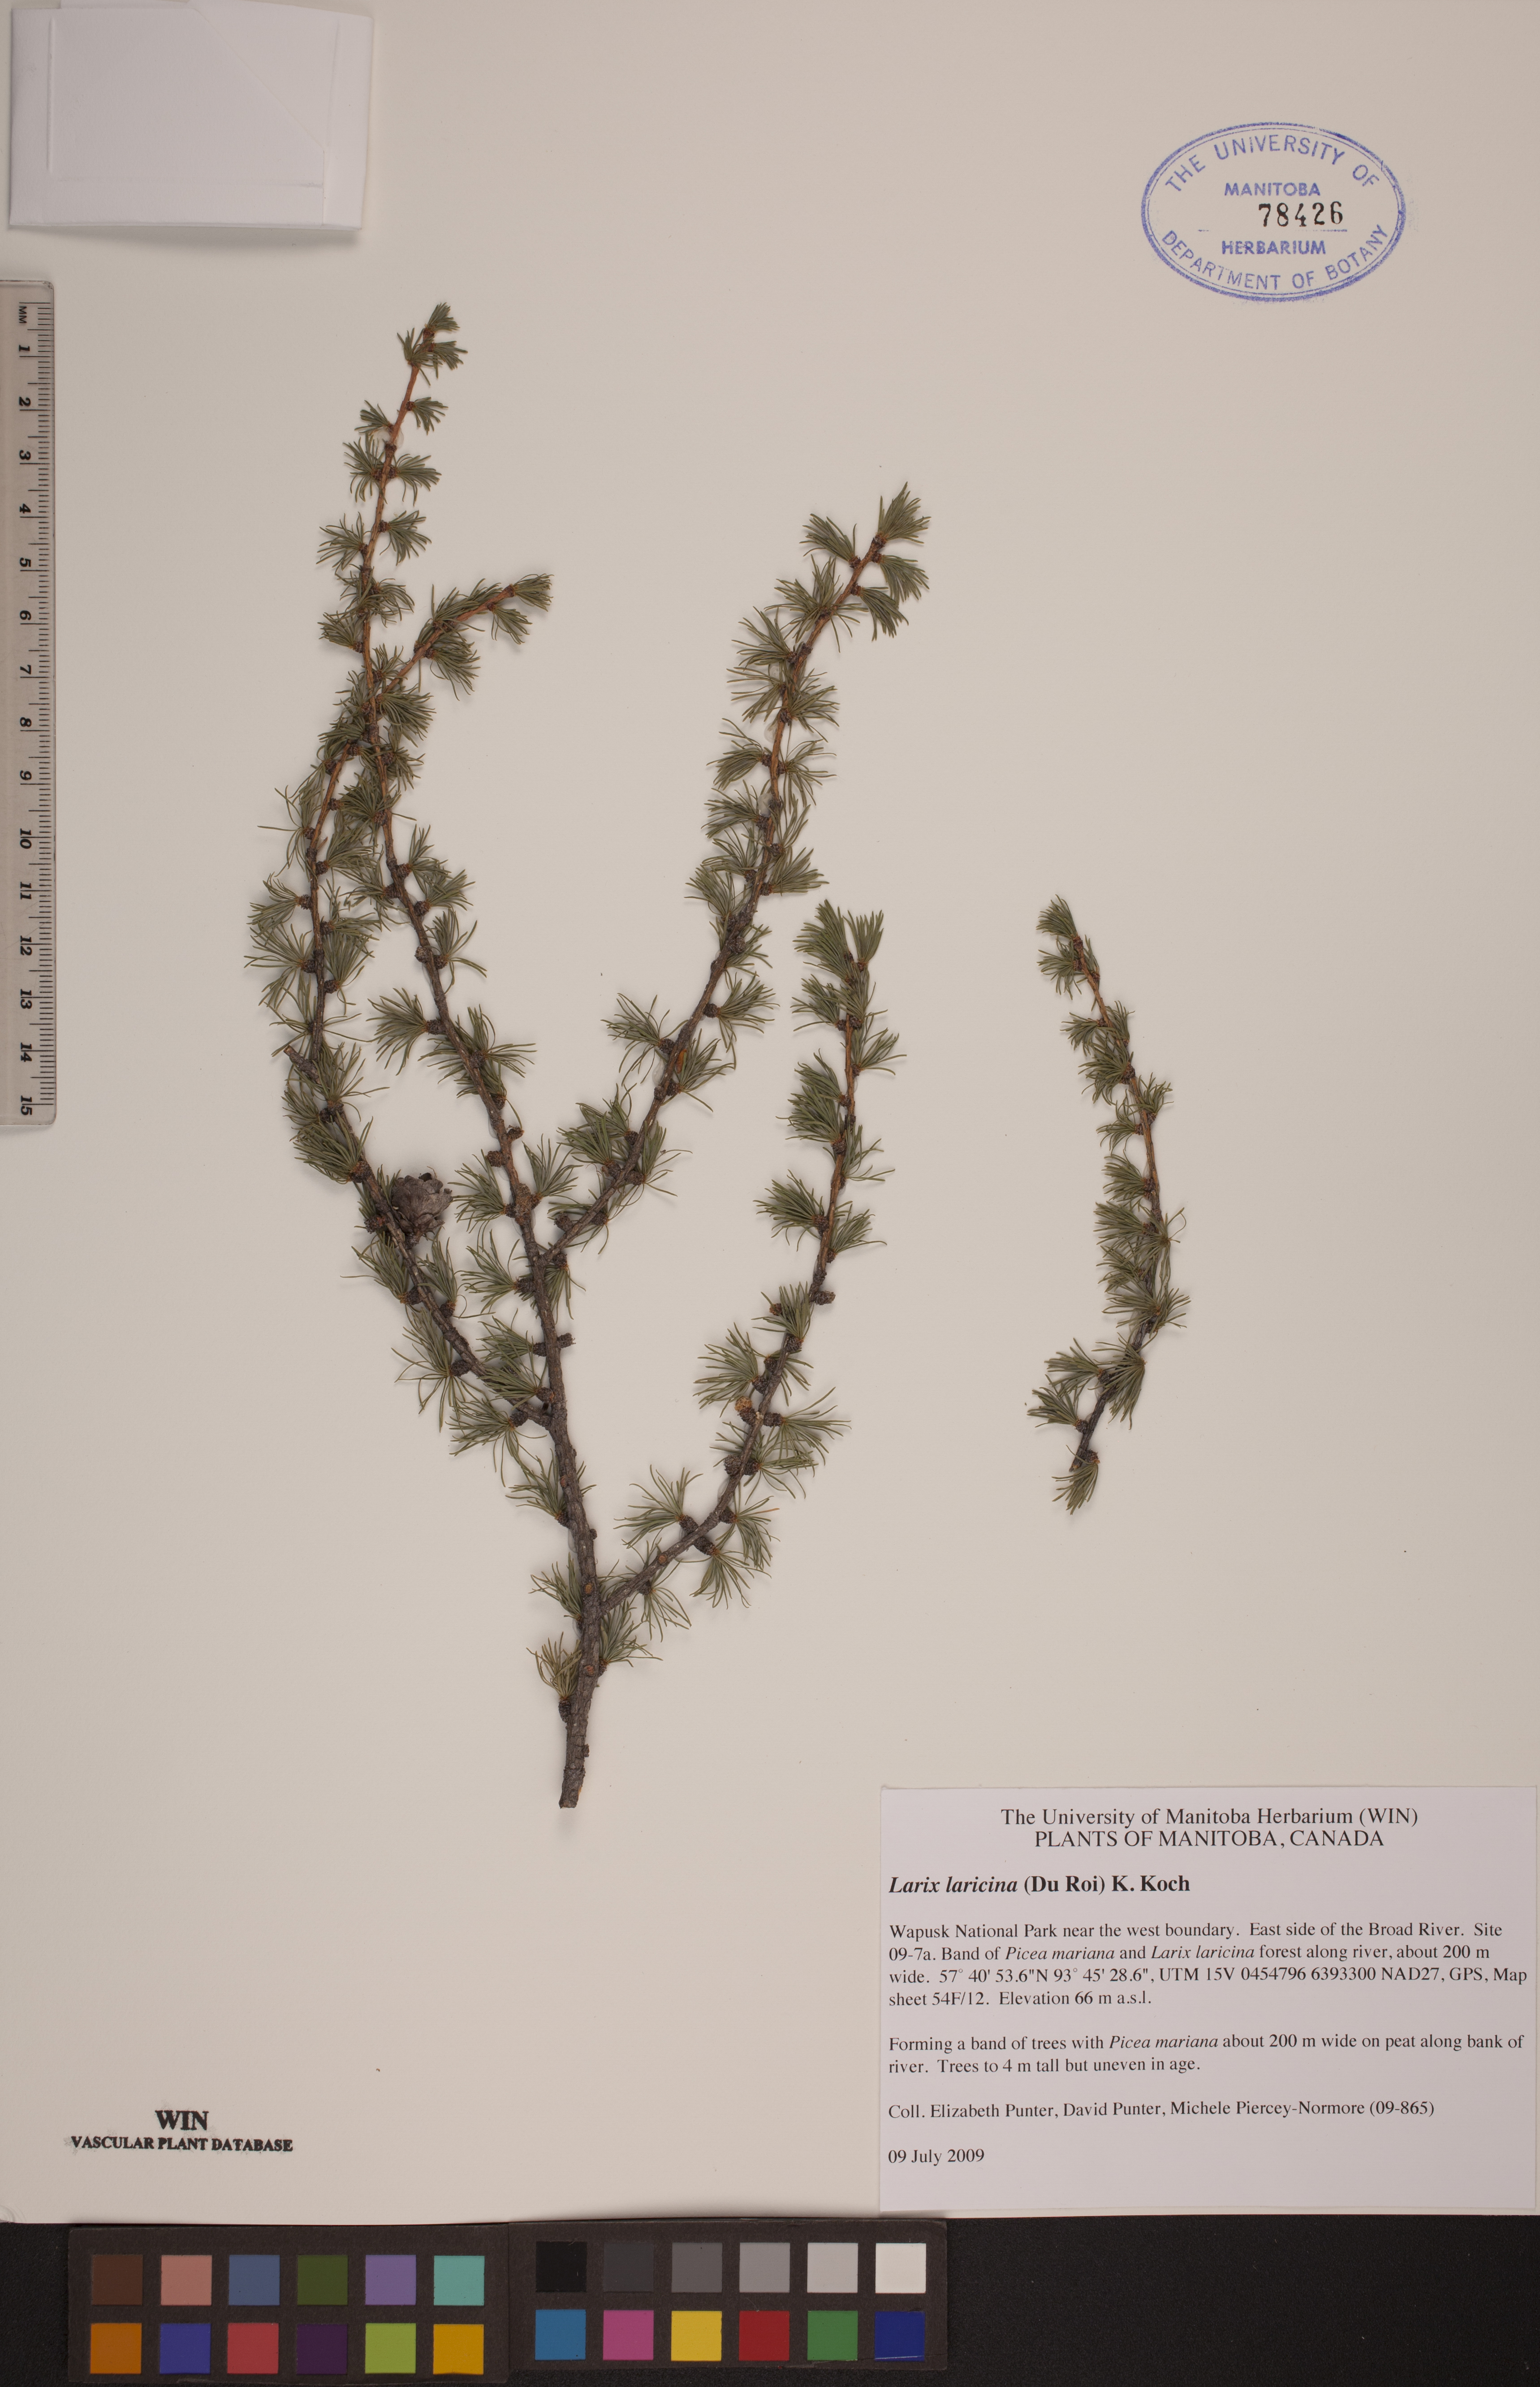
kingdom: Plantae
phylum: Tracheophyta
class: Pinopsida
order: Pinales
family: Pinaceae
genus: Larix
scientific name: Larix laricina
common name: American larch
